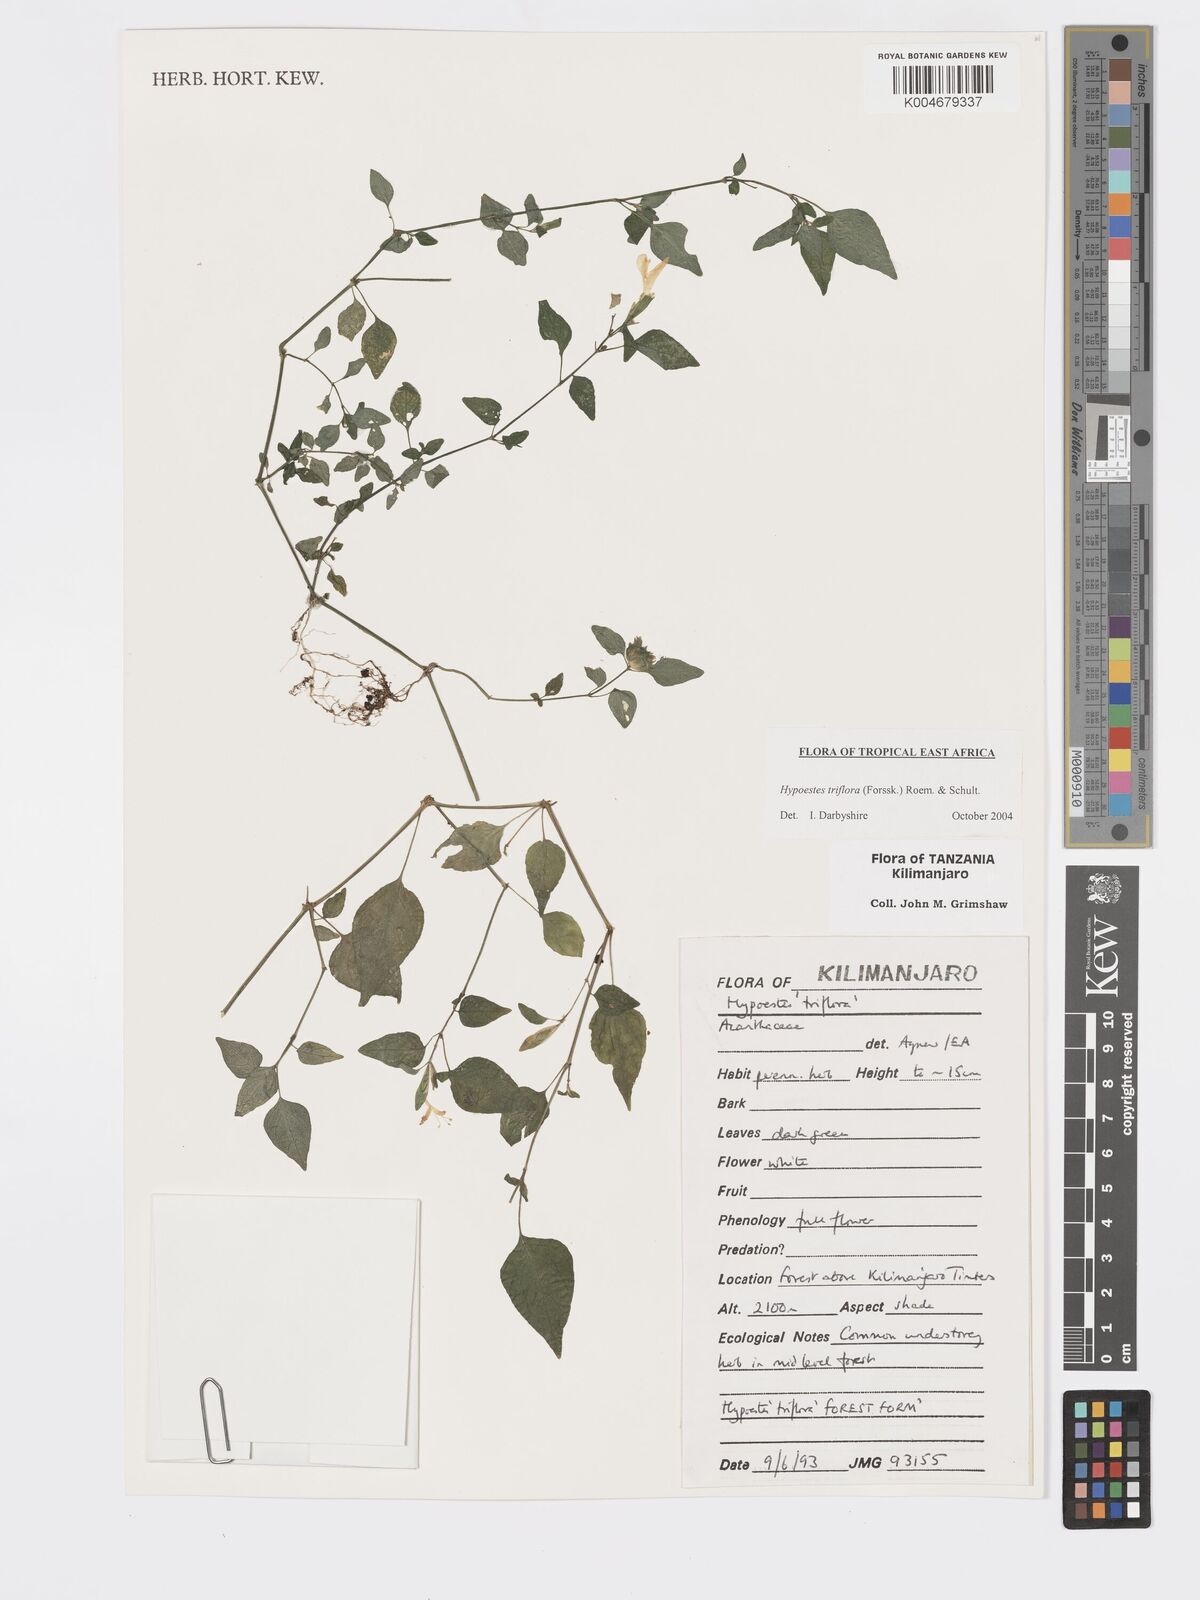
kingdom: Plantae
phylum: Tracheophyta
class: Magnoliopsida
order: Lamiales
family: Acanthaceae
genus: Hypoestes
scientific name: Hypoestes triflora
